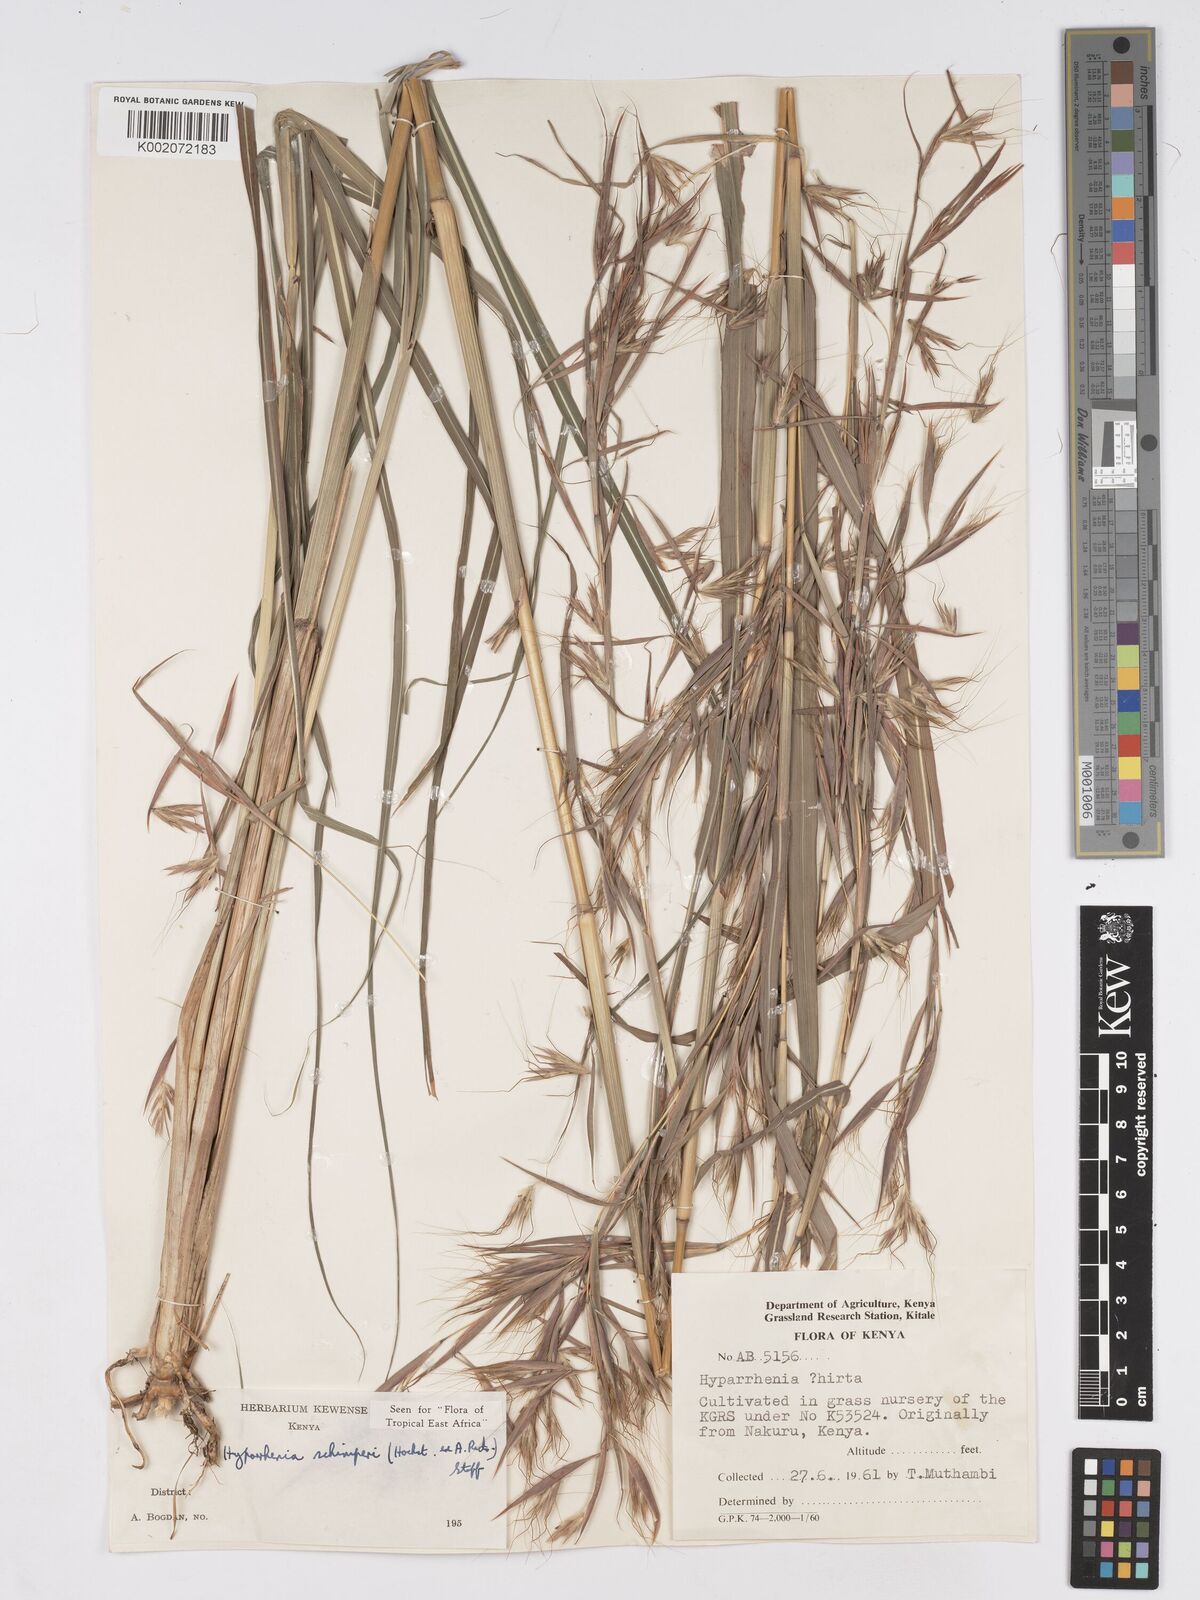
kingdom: Plantae
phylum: Tracheophyta
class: Liliopsida
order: Poales
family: Poaceae
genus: Hyparrhenia
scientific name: Hyparrhenia schimperi
